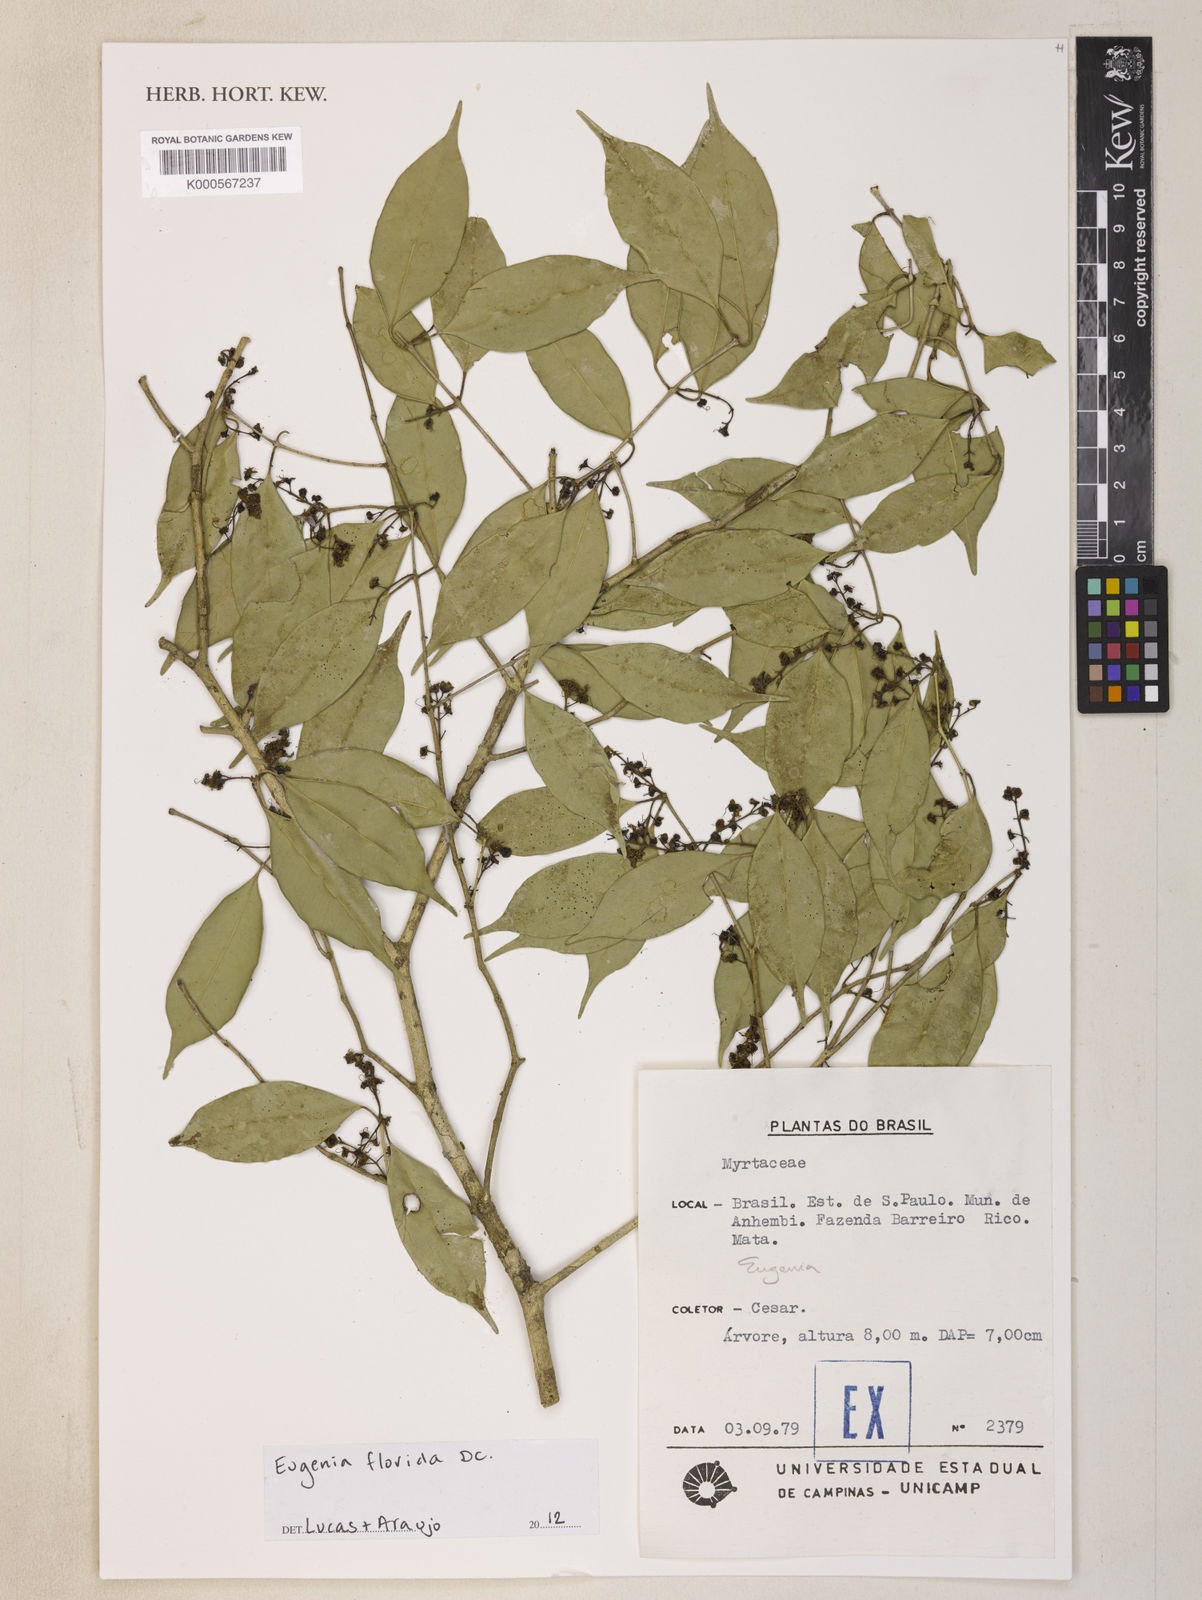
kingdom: Plantae
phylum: Tracheophyta
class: Magnoliopsida
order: Myrtales
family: Myrtaceae
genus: Eugenia
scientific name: Eugenia cucullata
